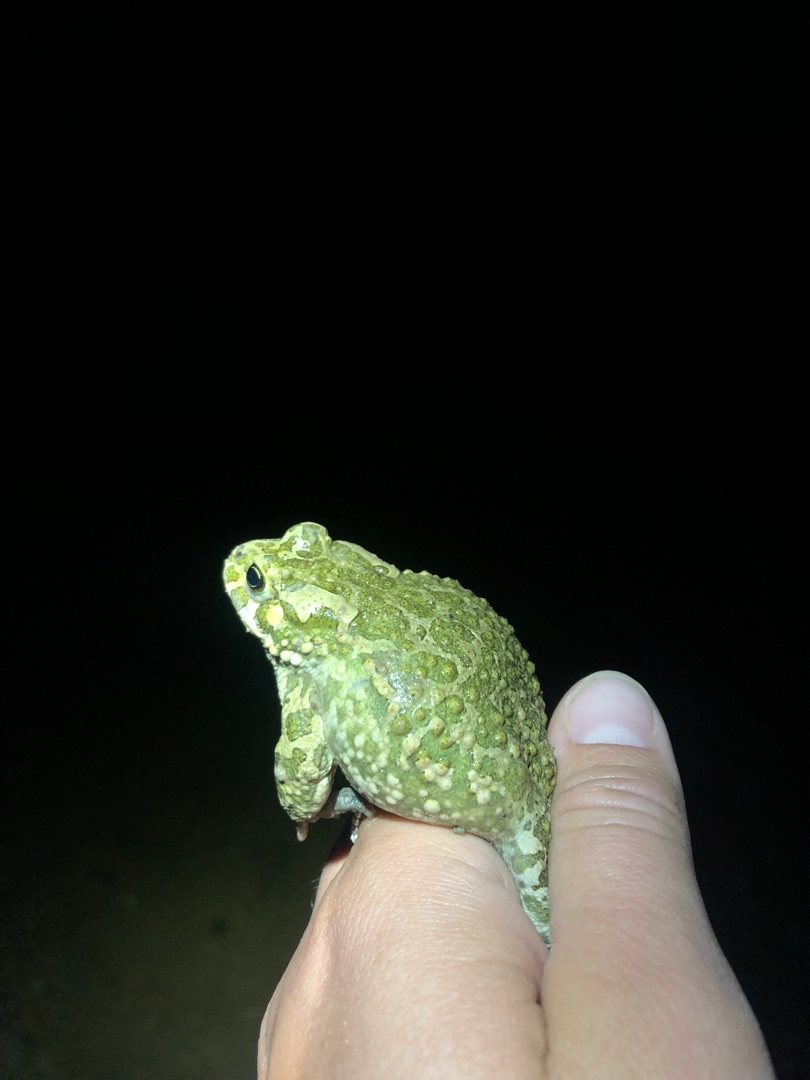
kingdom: Animalia
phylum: Chordata
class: Amphibia
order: Anura
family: Bufonidae
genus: Bufotes
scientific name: Bufotes viridis
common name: Grønbroget tudse
